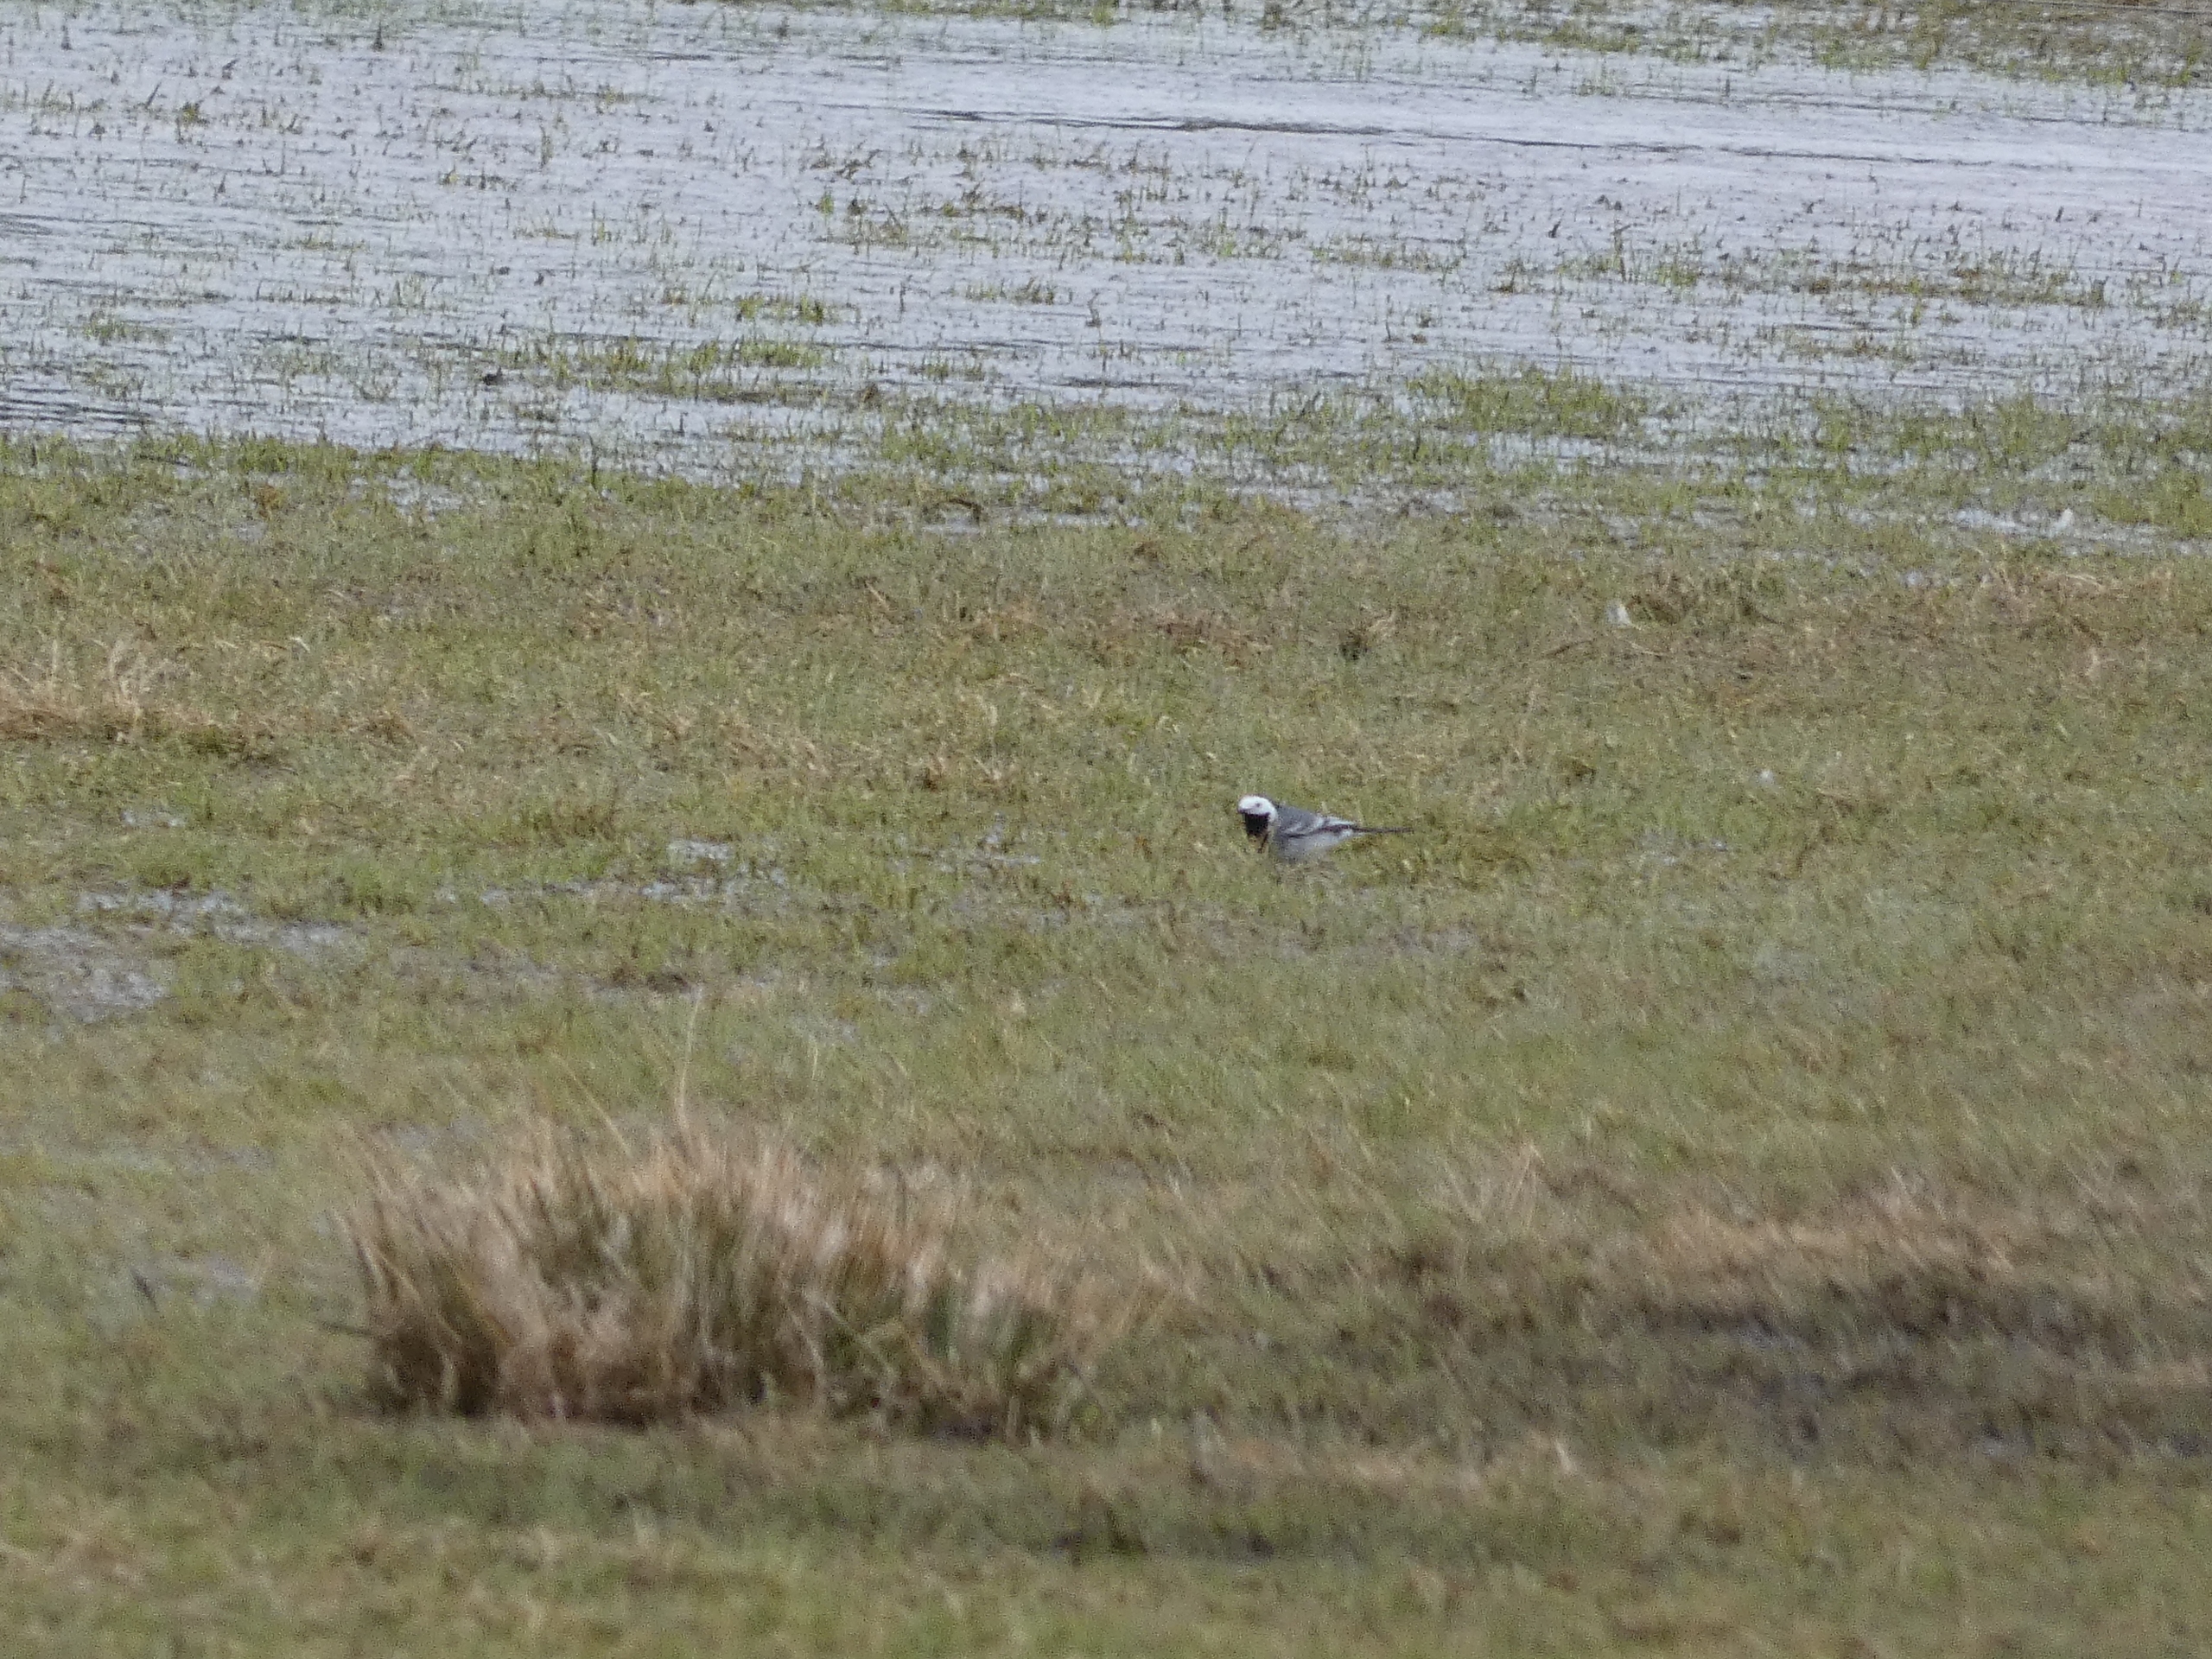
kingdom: Animalia
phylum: Chordata
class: Aves
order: Passeriformes
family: Motacillidae
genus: Motacilla
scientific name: Motacilla alba
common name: Hvid vipstjert
